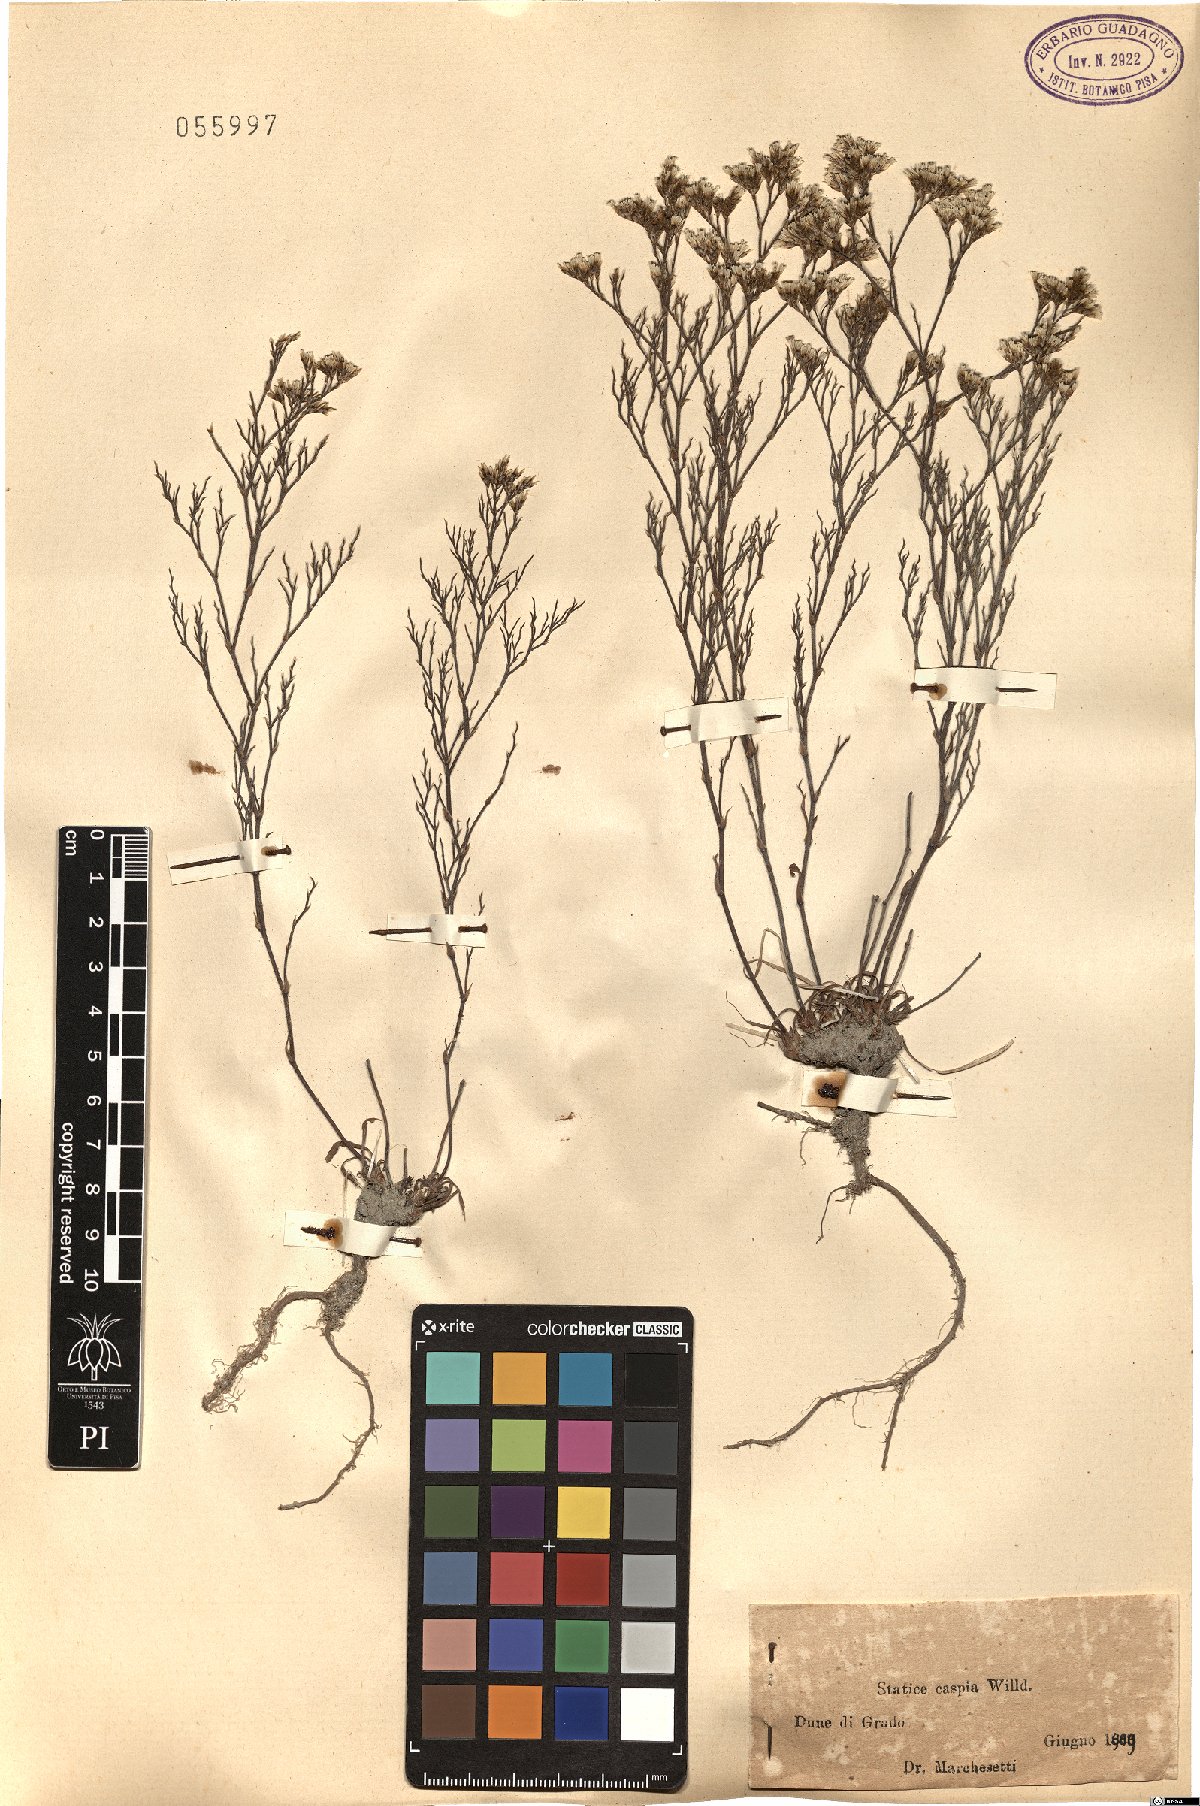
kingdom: Plantae
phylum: Tracheophyta
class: Magnoliopsida
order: Caryophyllales
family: Plumbaginaceae
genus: Limonium
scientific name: Limonium bellidifolium
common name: Matted sea-lavender
